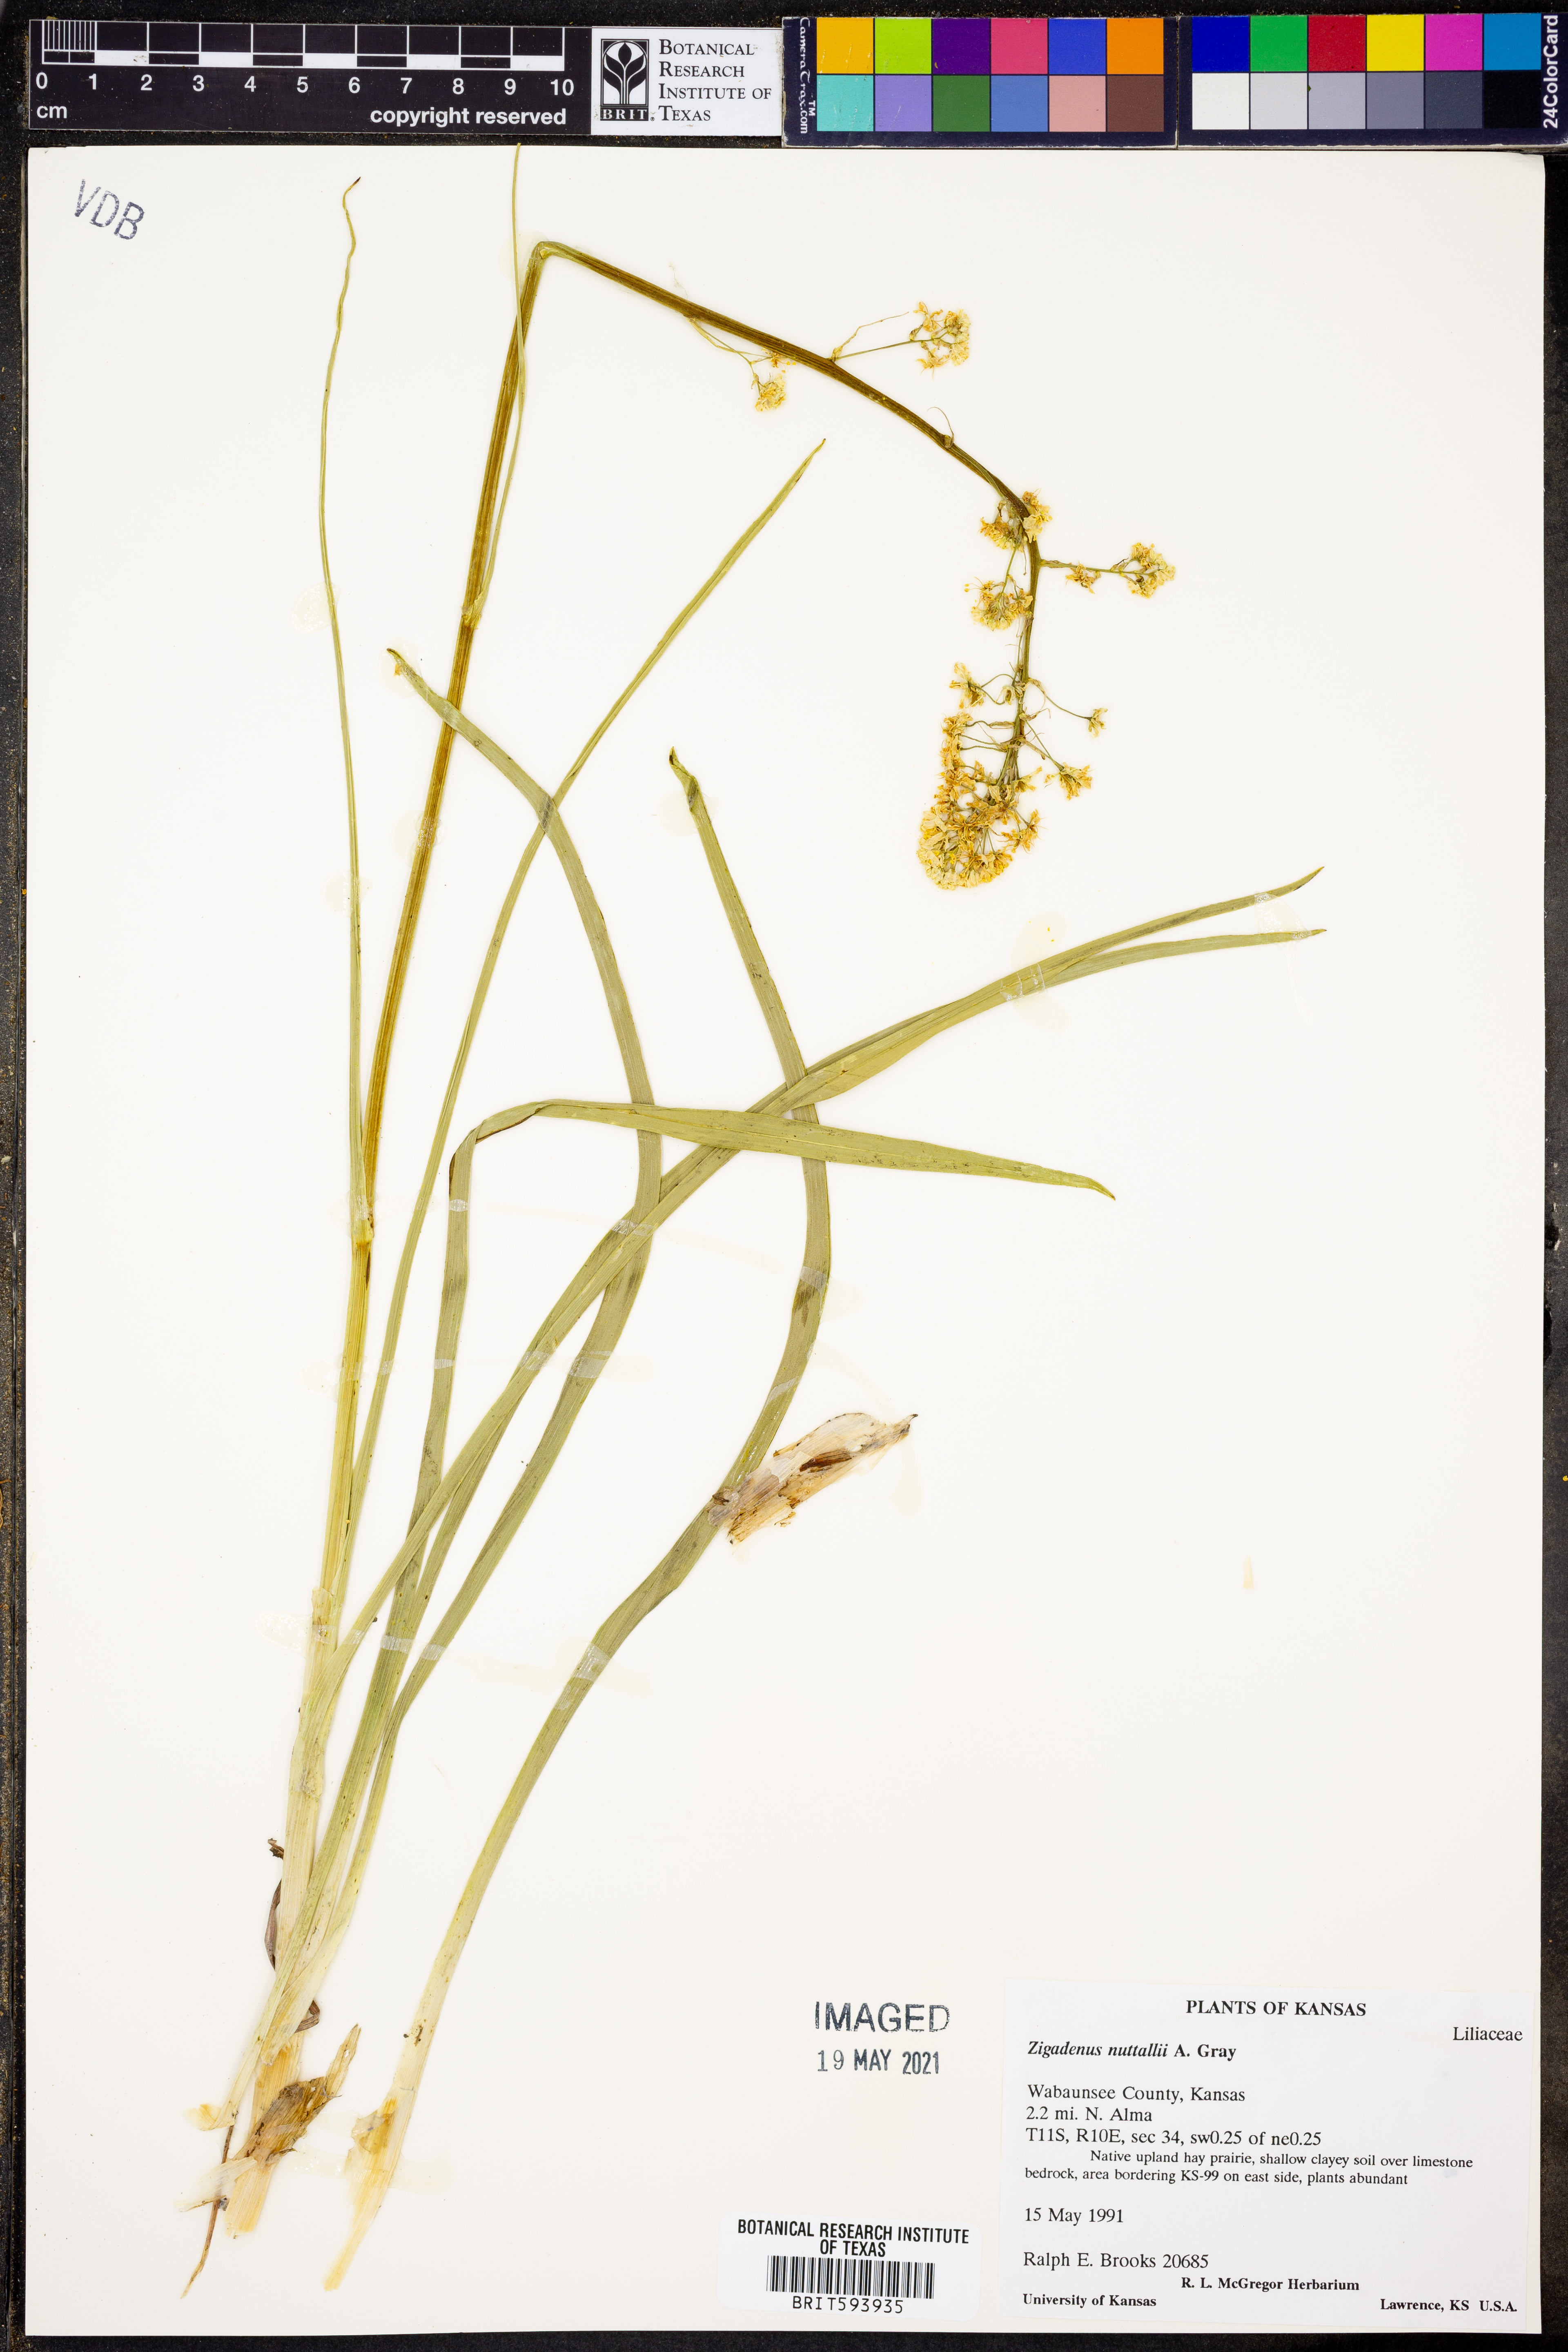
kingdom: Plantae
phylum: Tracheophyta
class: Liliopsida
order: Liliales
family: Melanthiaceae
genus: Toxicoscordion
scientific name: Toxicoscordion nuttallii
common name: Poison sego
